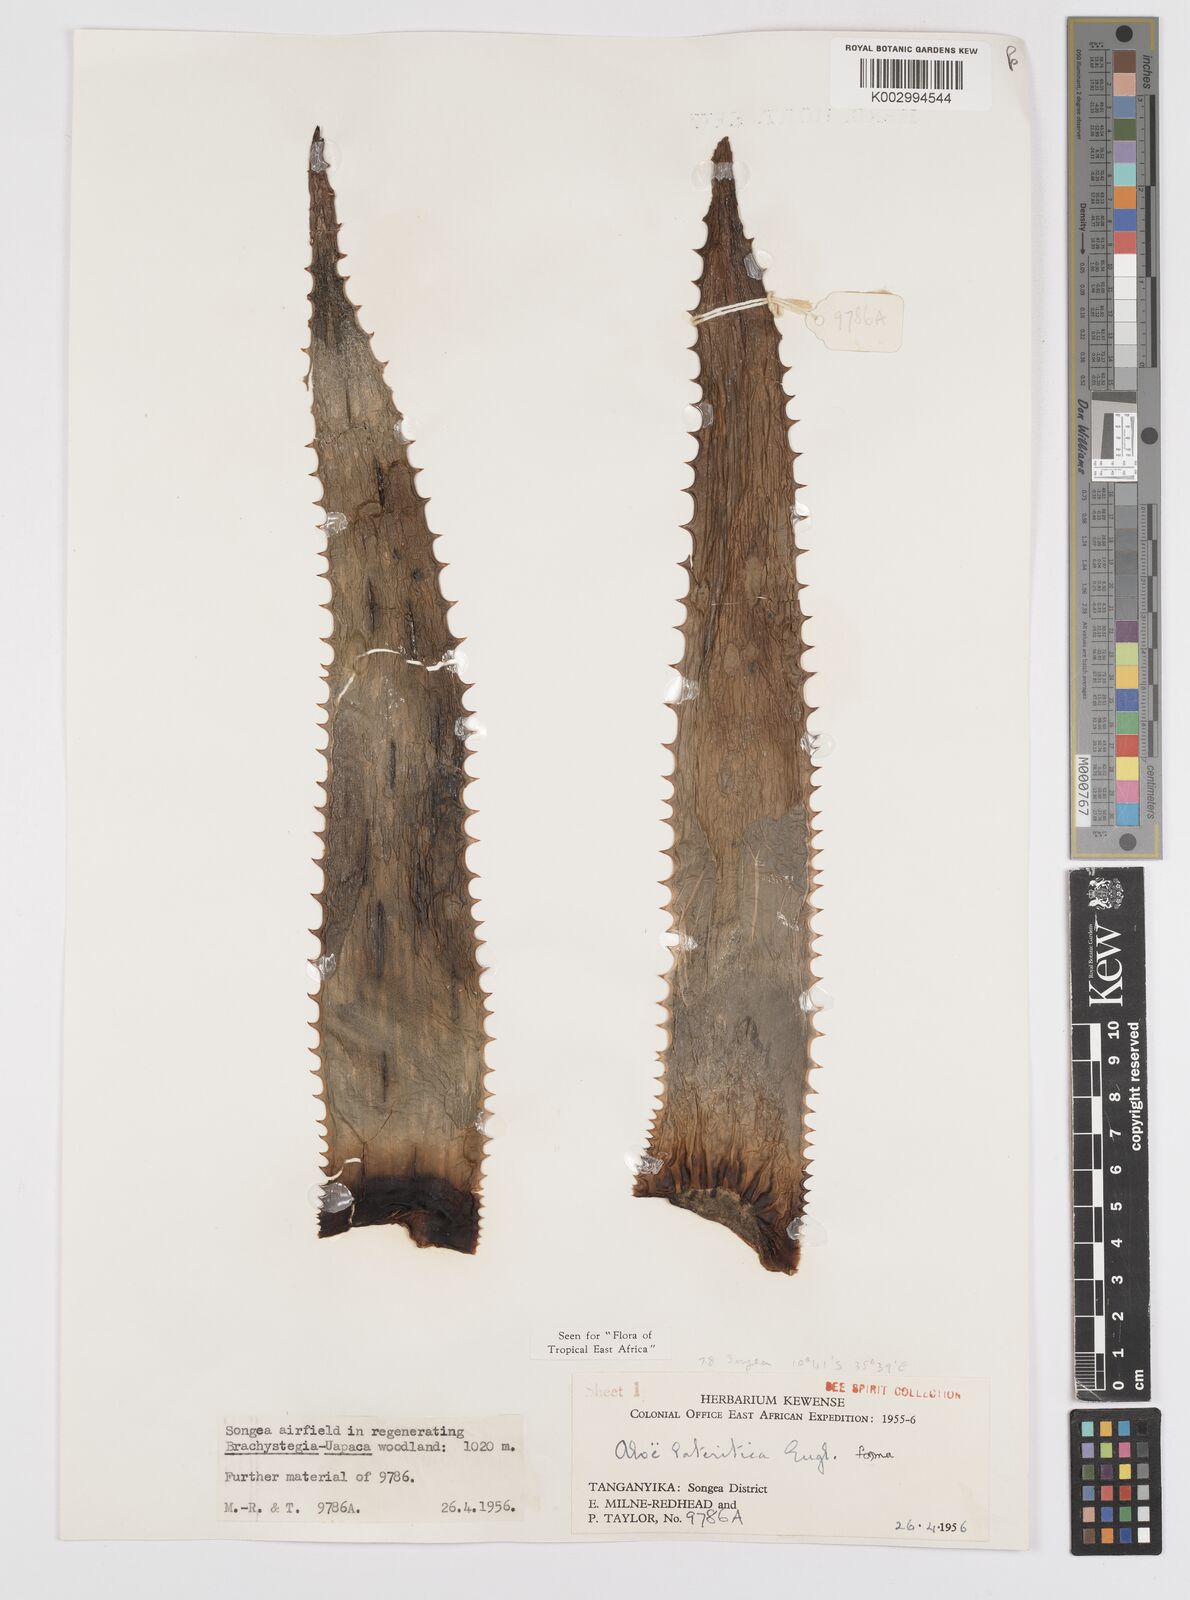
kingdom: Plantae
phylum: Tracheophyta
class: Liliopsida
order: Asparagales
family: Asphodelaceae
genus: Aloe
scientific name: Aloe lateritia
